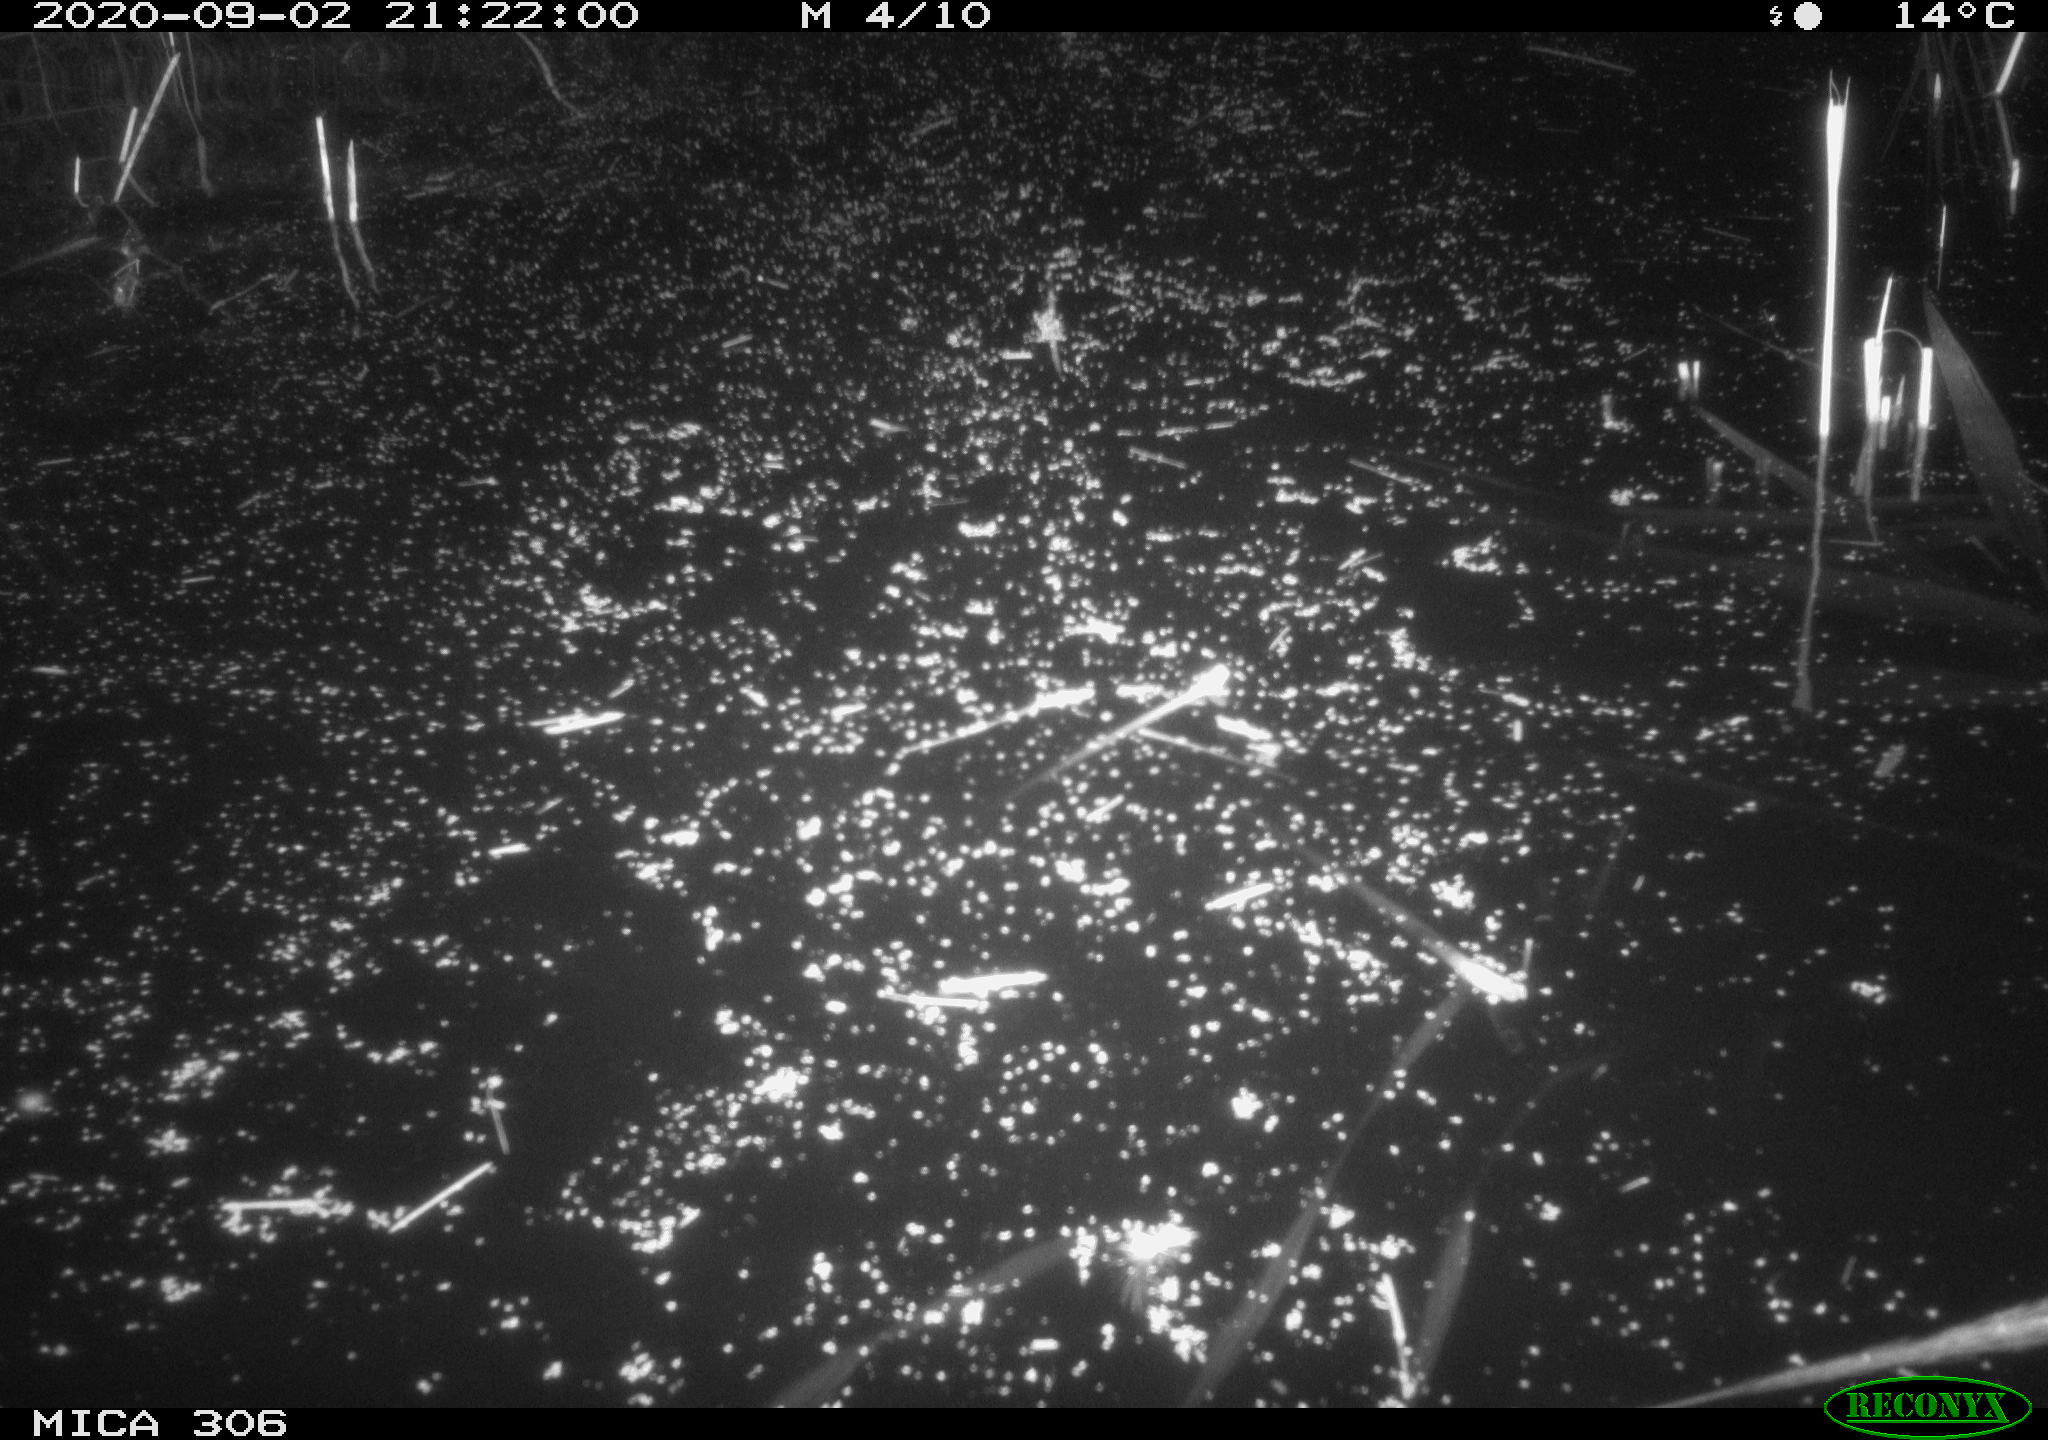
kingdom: Animalia
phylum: Chordata
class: Mammalia
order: Rodentia
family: Muridae
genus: Rattus
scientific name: Rattus norvegicus
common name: Brown rat
